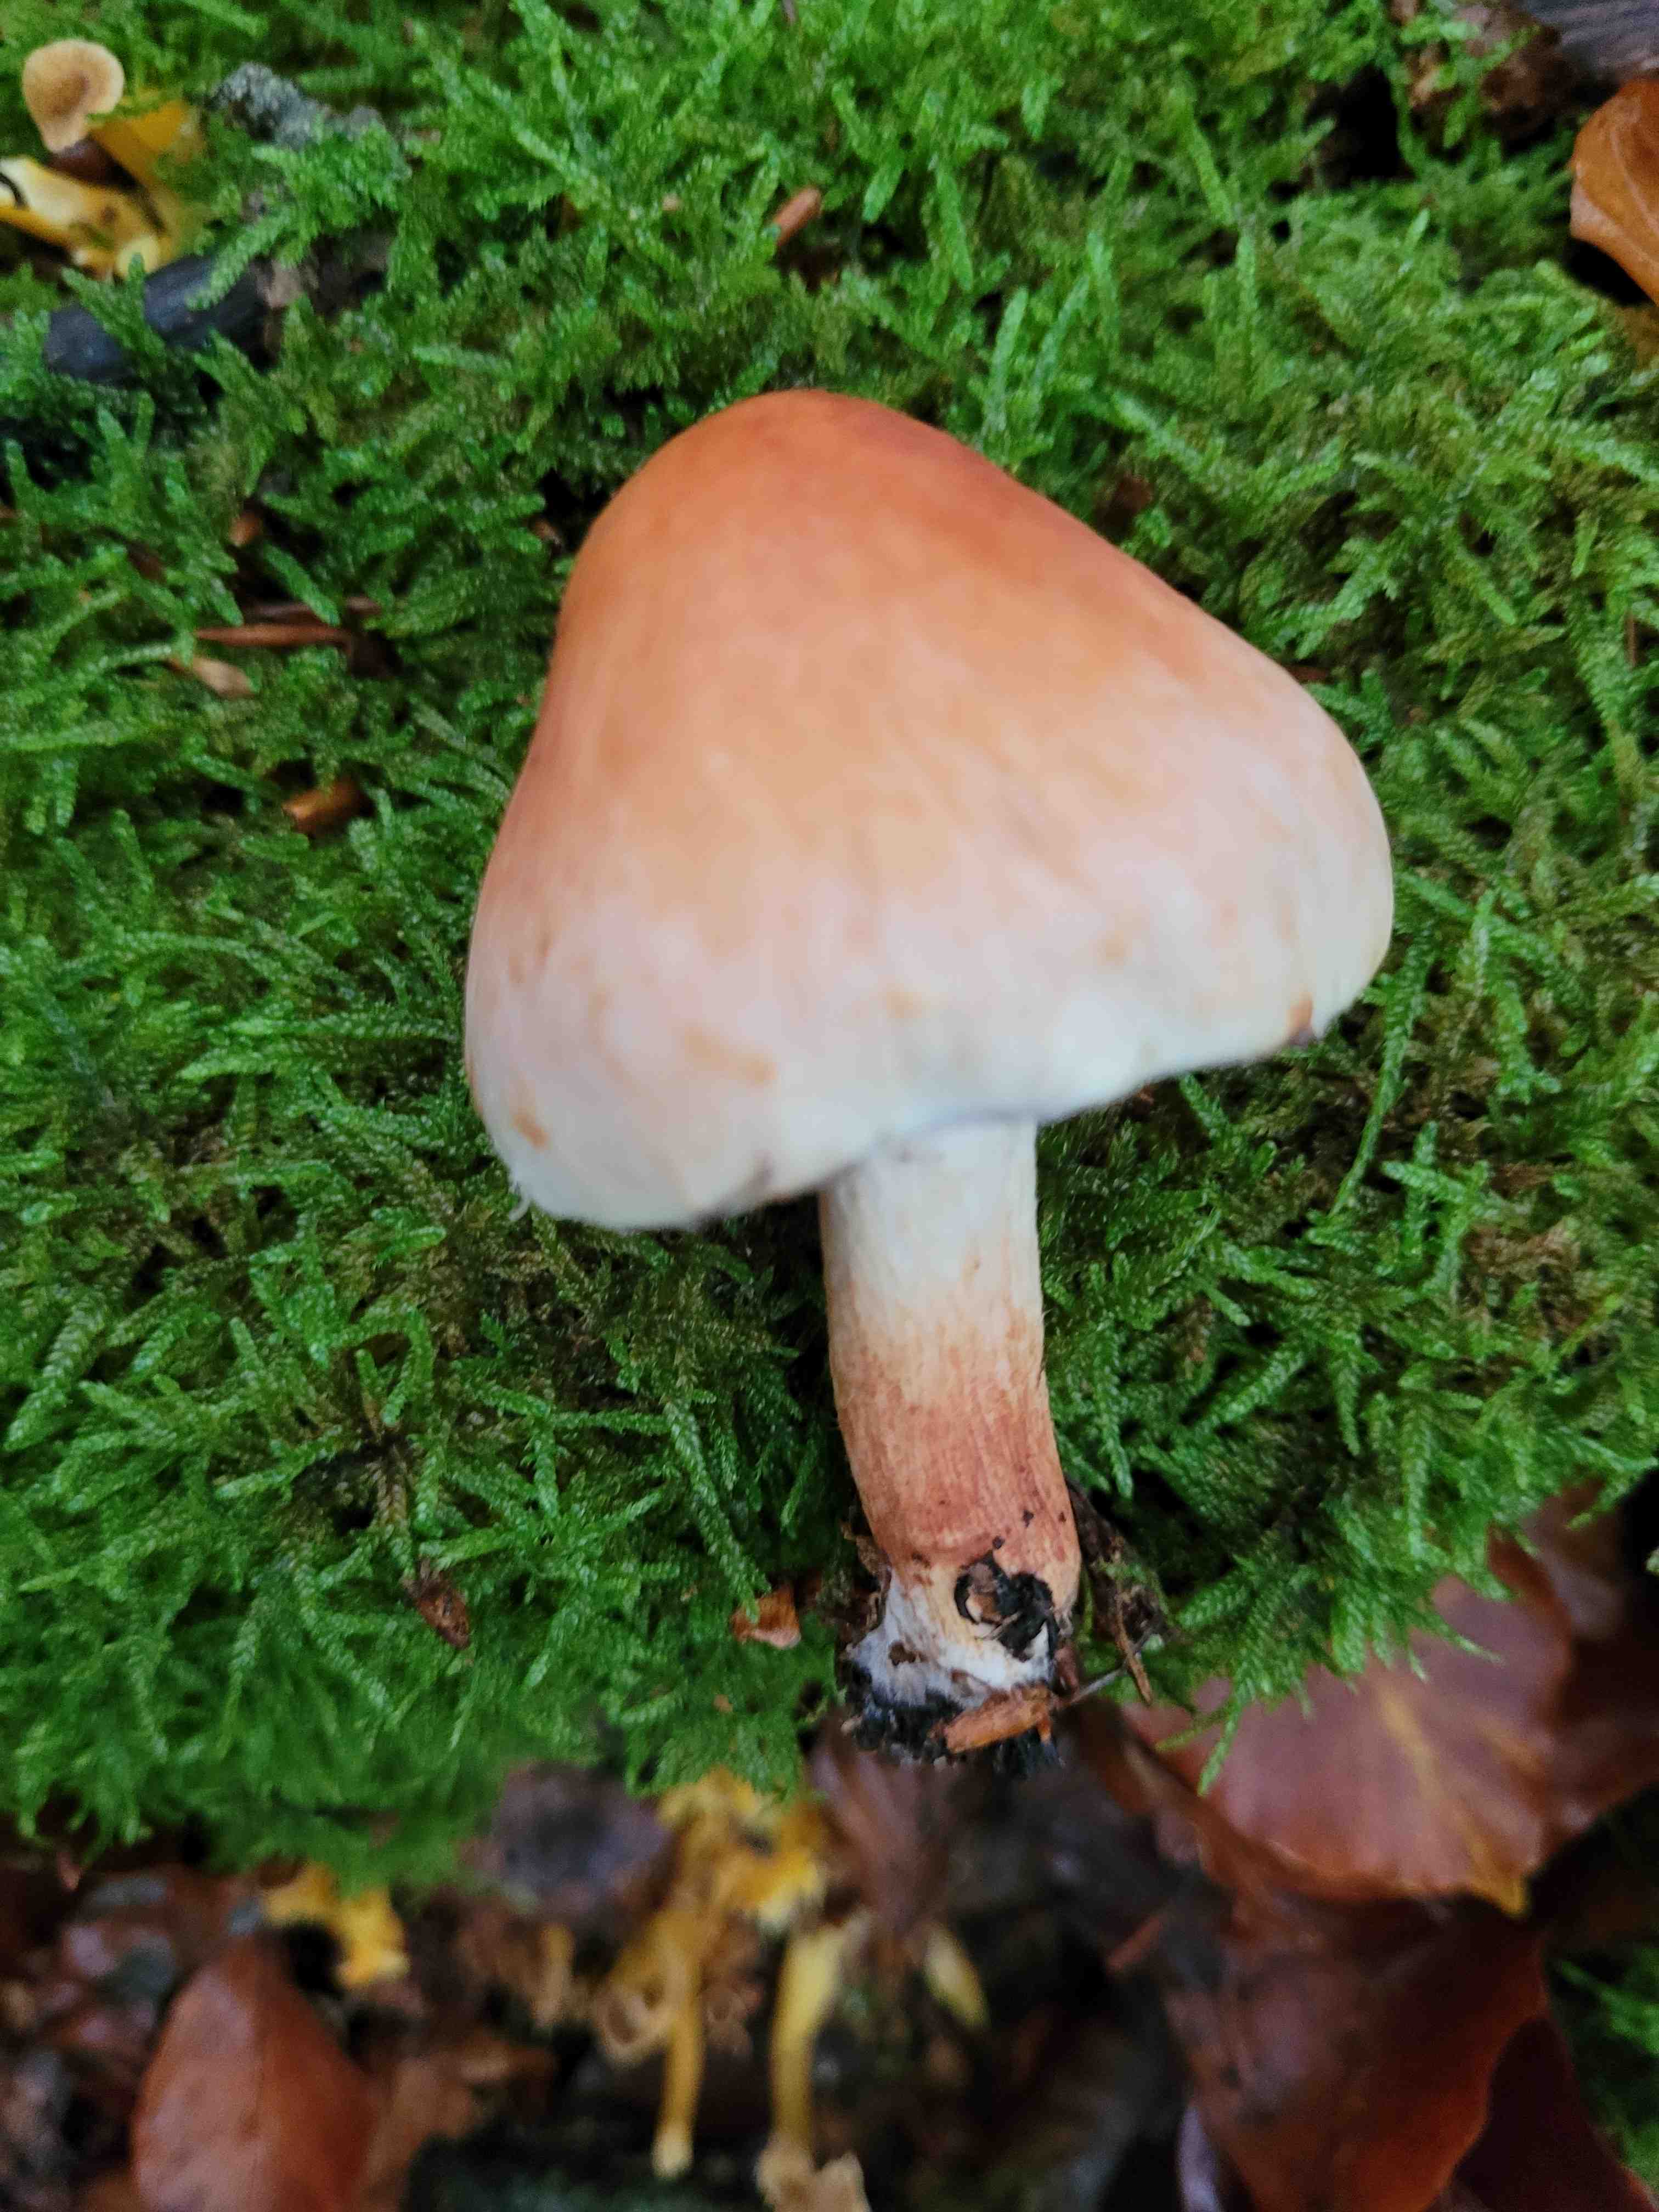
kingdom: Fungi
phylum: Basidiomycota
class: Agaricomycetes
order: Agaricales
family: Strophariaceae
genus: Hypholoma
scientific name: Hypholoma lateritium
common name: teglrød svovlhat
